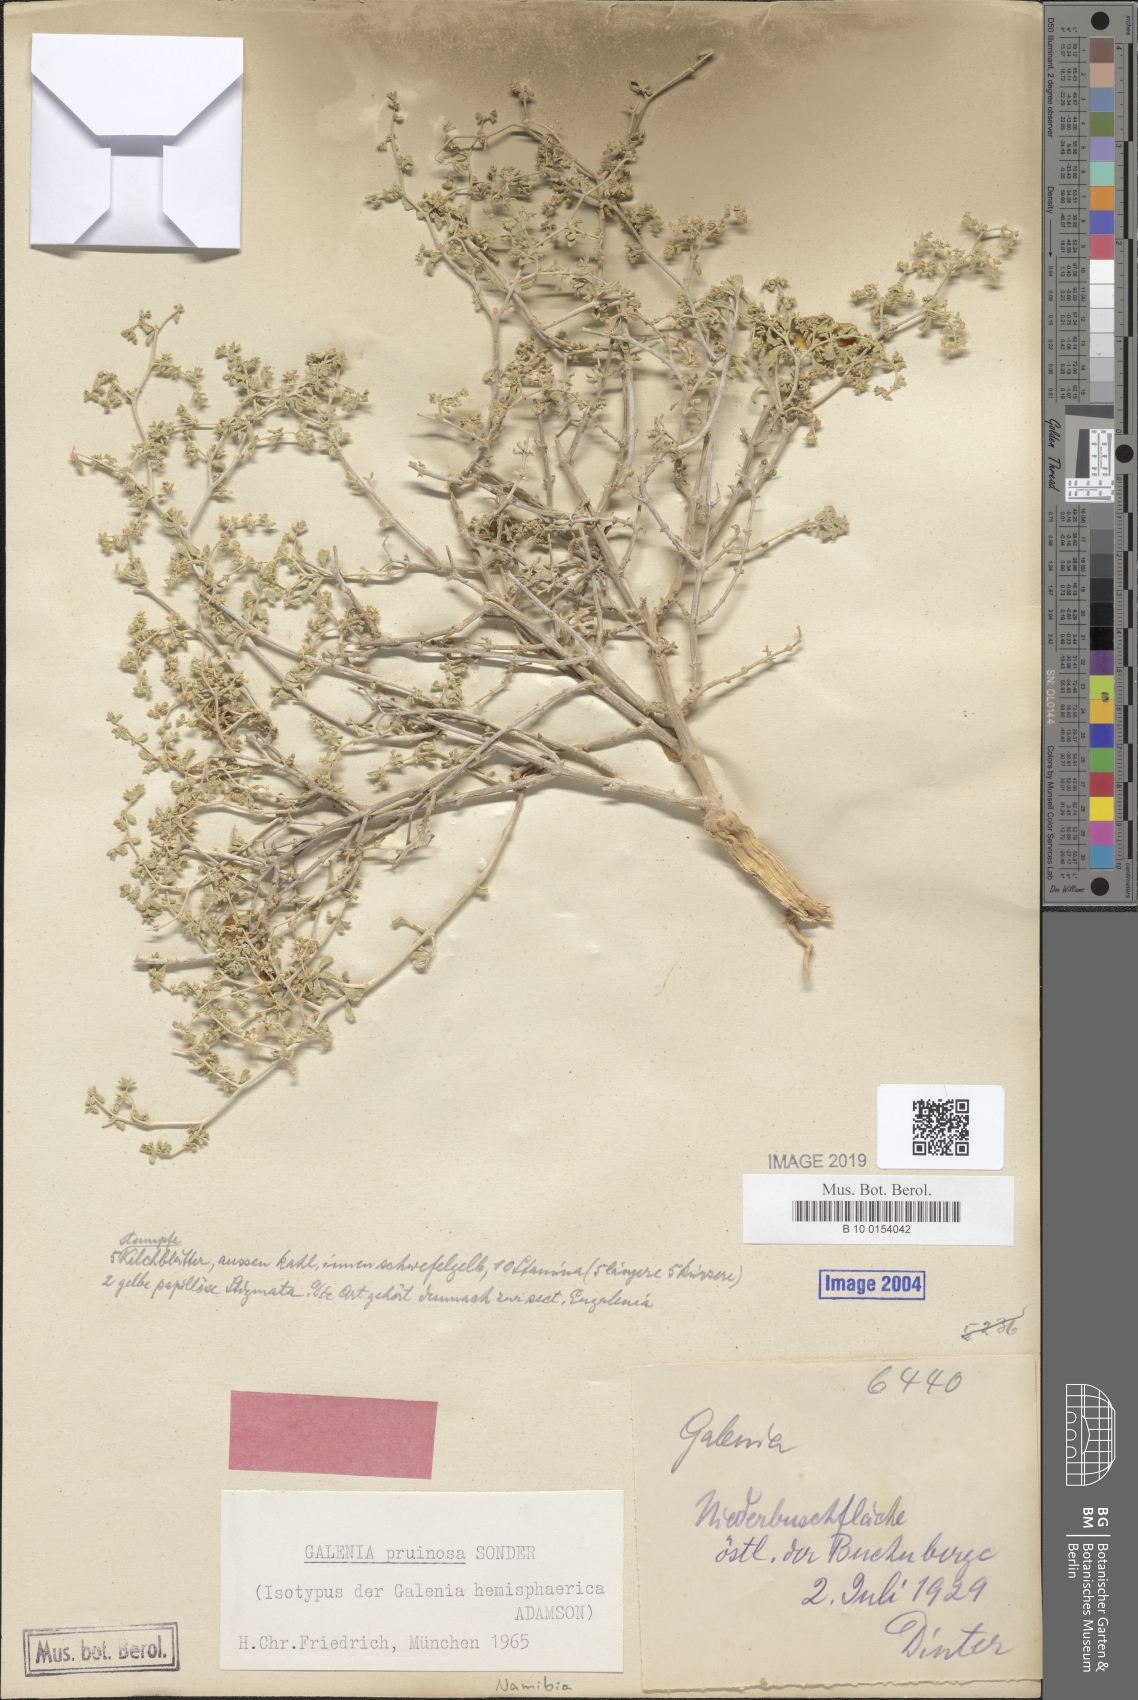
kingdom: Plantae
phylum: Tracheophyta
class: Magnoliopsida
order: Caryophyllales
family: Aizoaceae
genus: Aizoon
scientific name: Aizoon pruinosum
